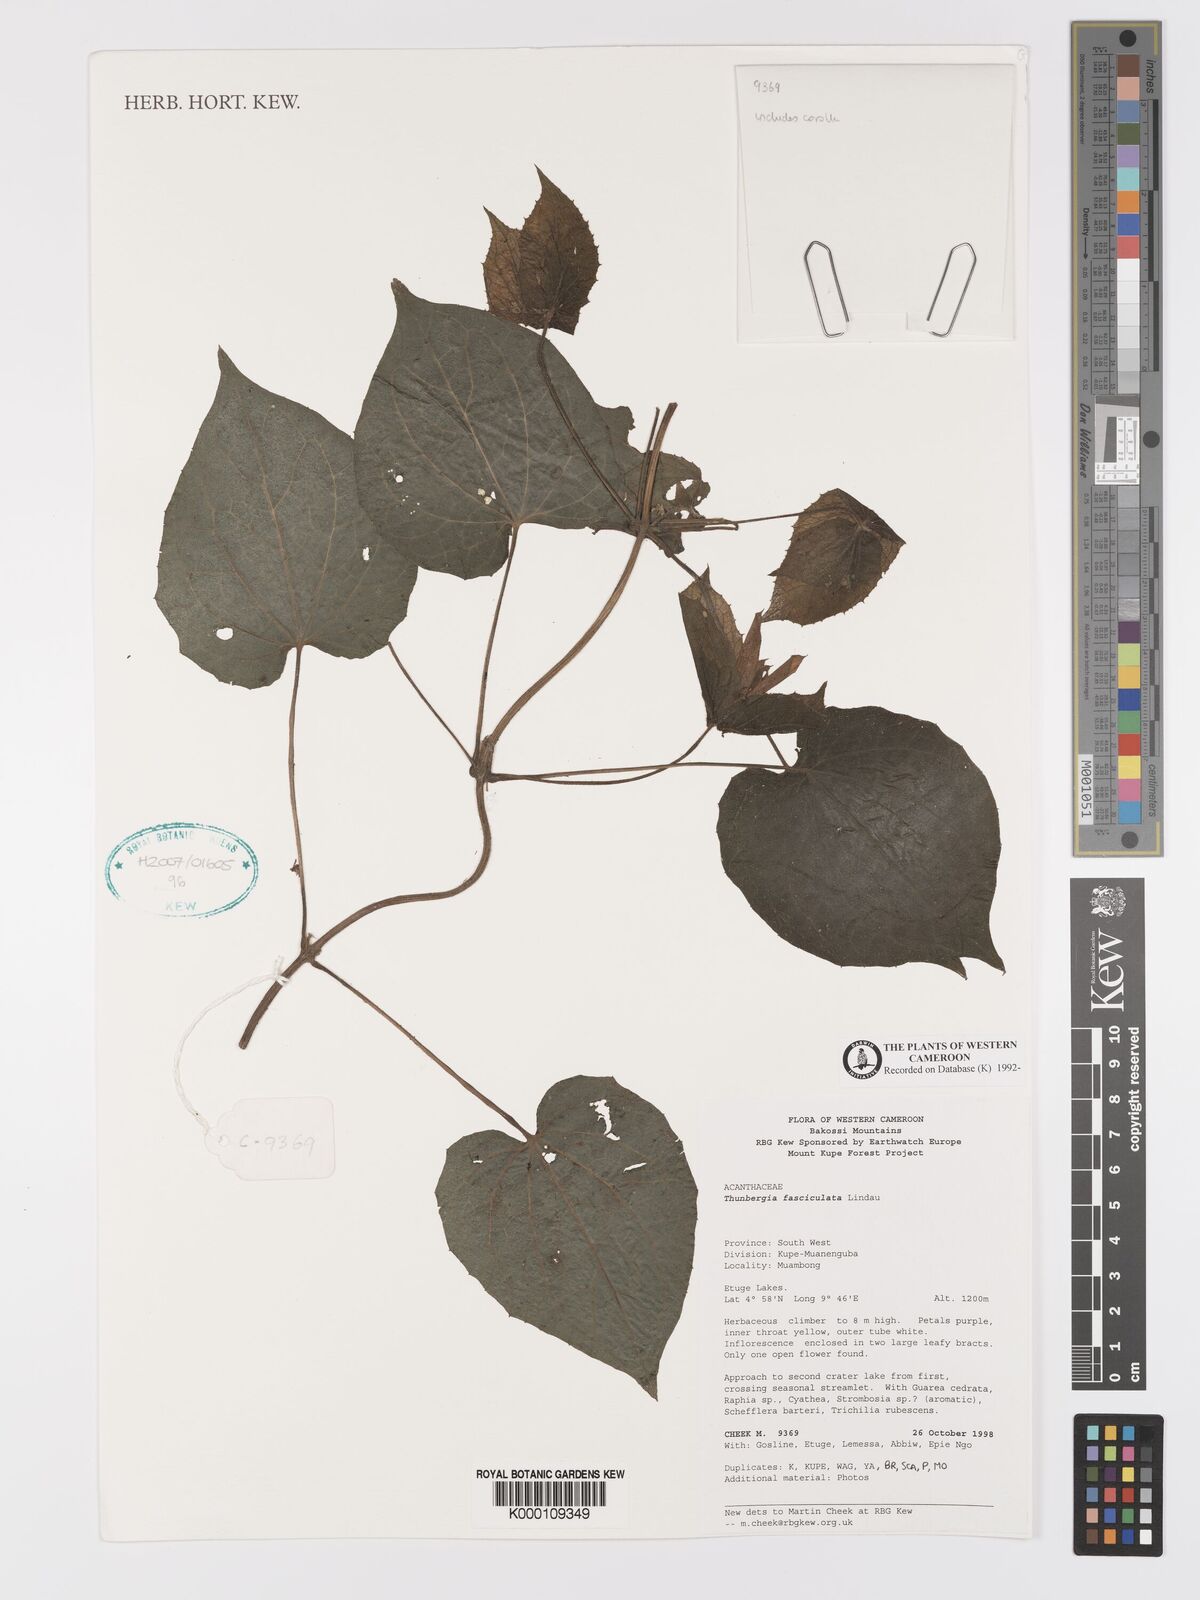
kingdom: Plantae
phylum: Tracheophyta
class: Magnoliopsida
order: Lamiales
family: Acanthaceae
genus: Thunbergia
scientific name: Thunbergia fasciculata
